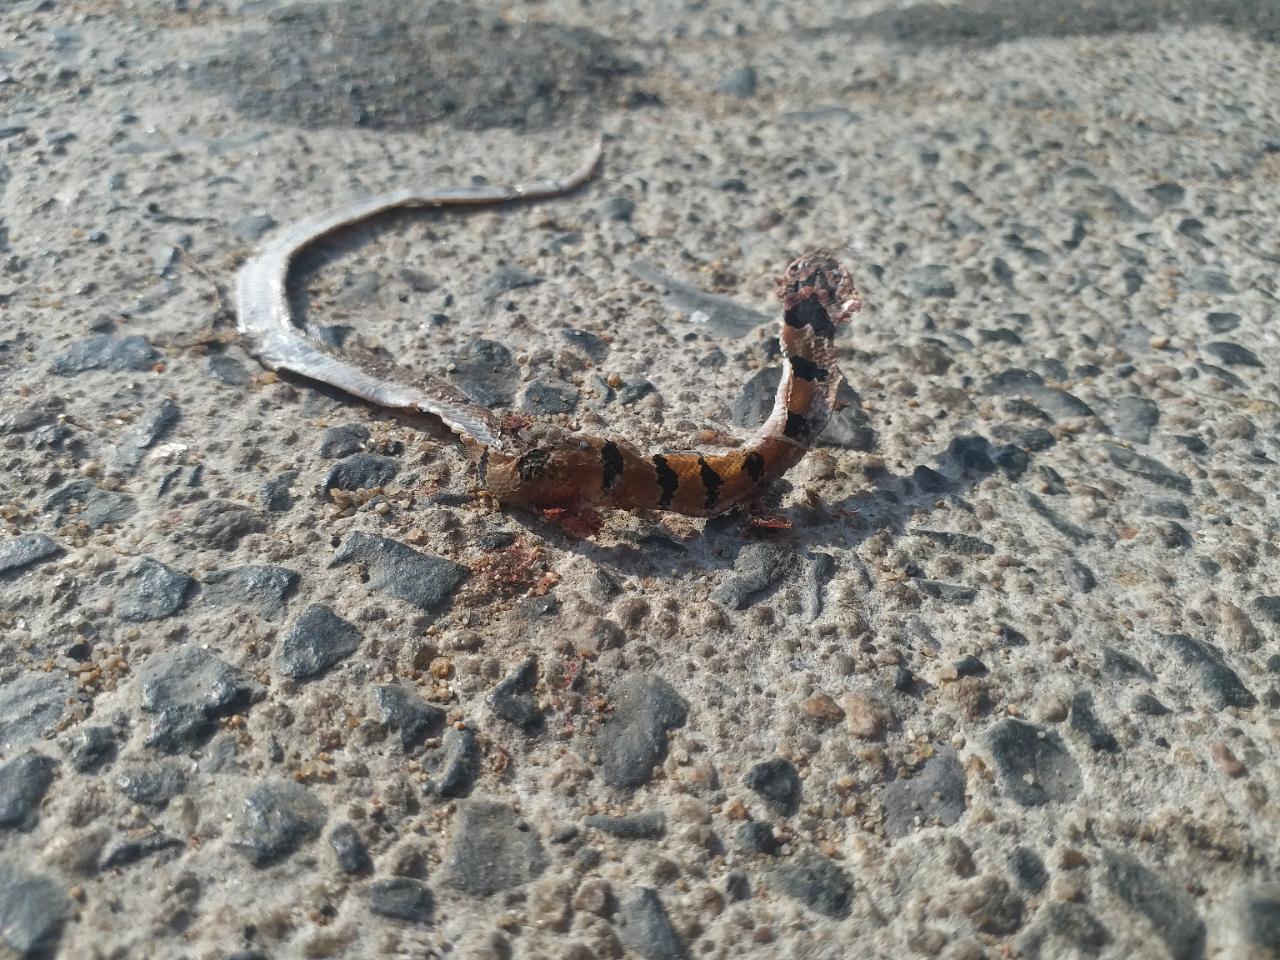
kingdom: Animalia
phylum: Chordata
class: Squamata
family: Colubridae
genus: Oligodon
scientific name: Oligodon
